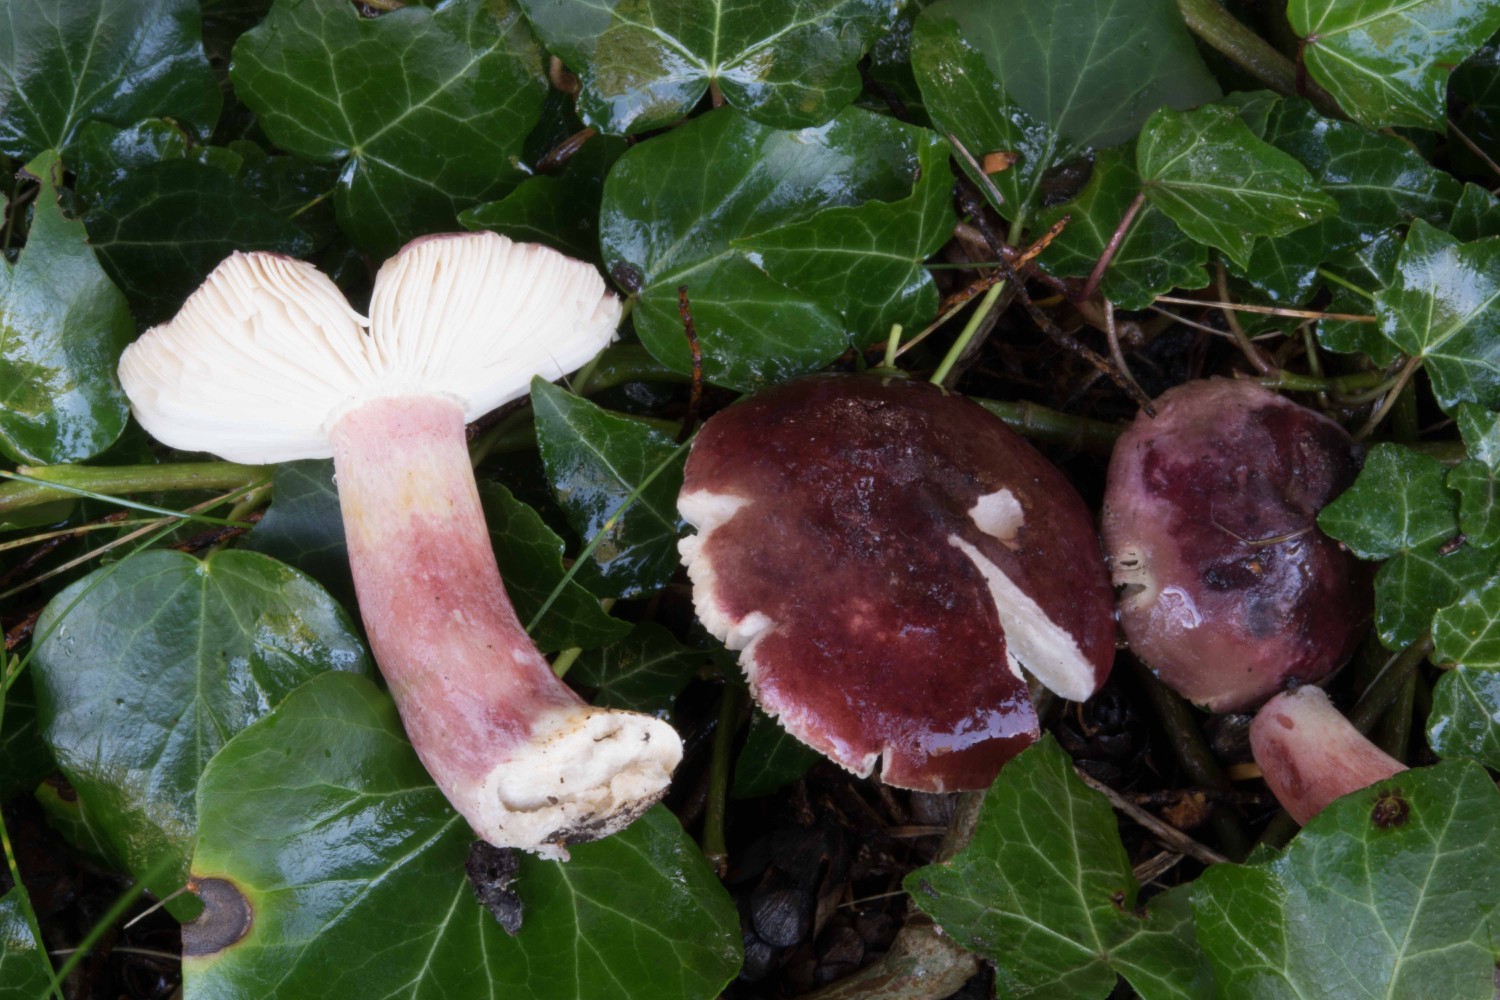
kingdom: Fungi
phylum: Basidiomycota
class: Agaricomycetes
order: Russulales
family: Russulaceae
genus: Russula
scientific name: Russula queletii
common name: Quélets skørhat
